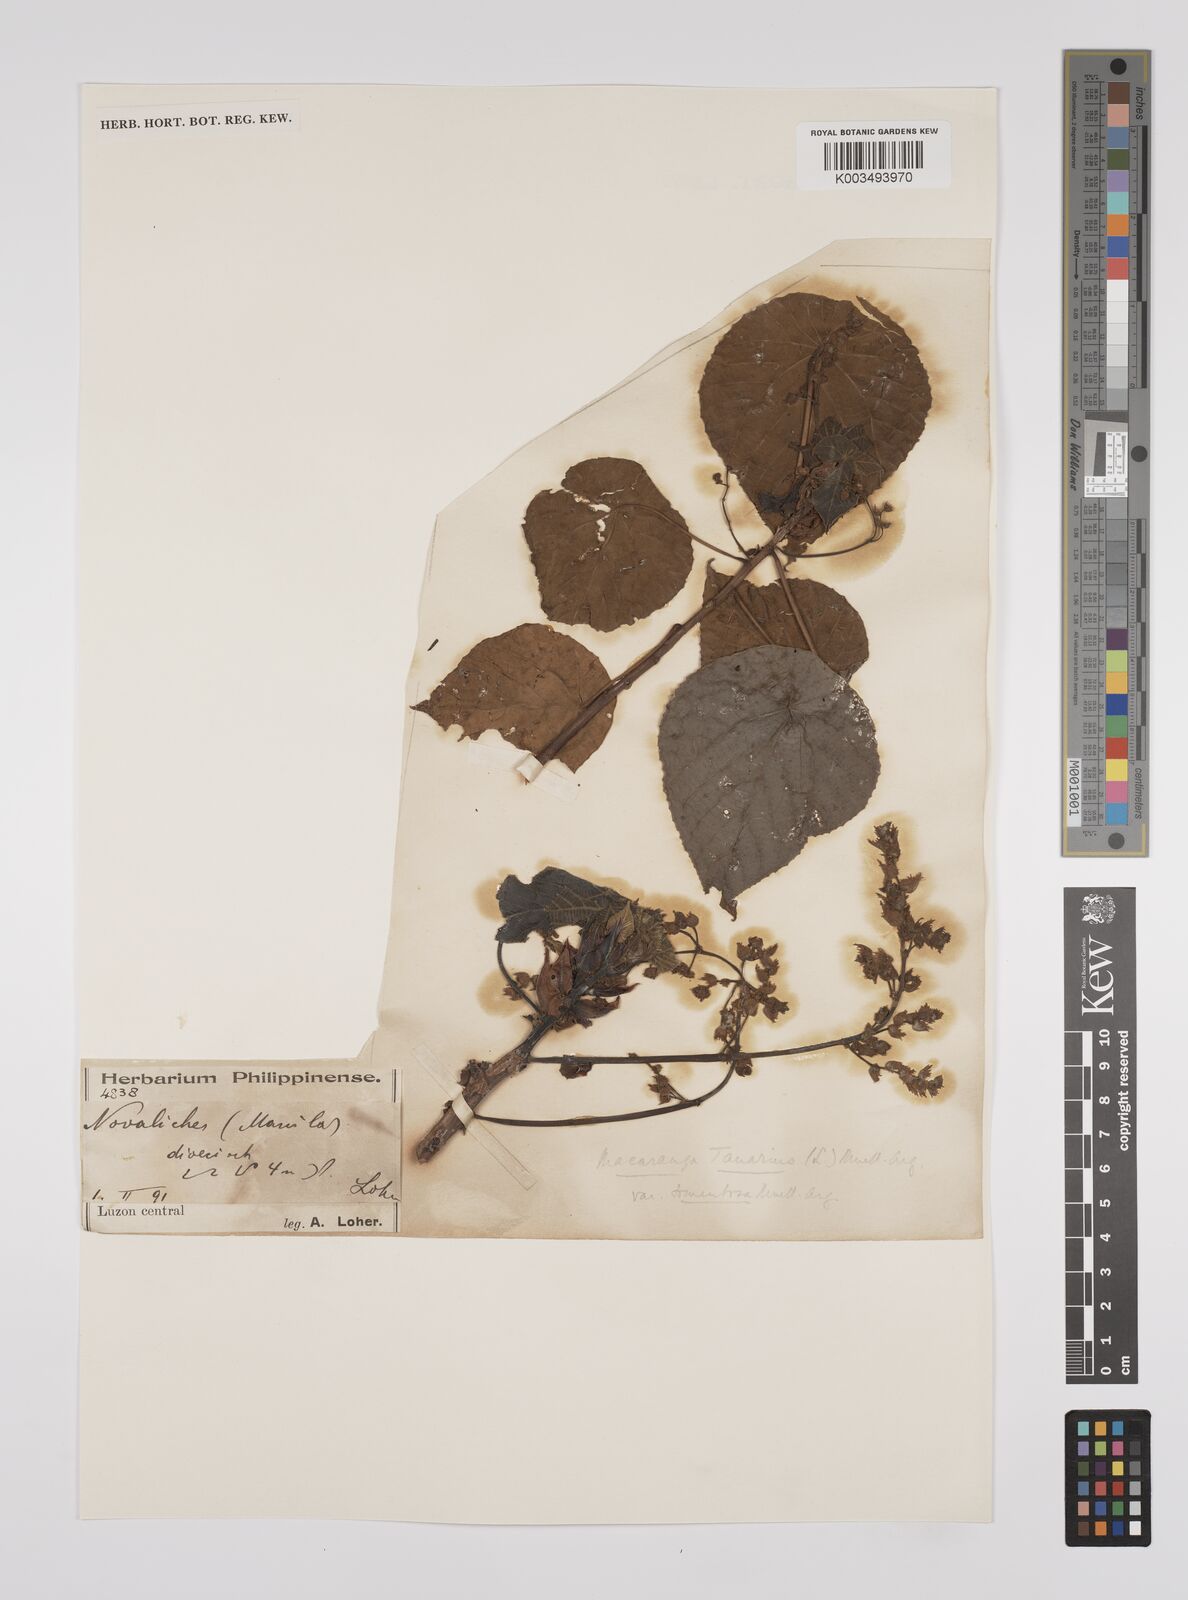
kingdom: Plantae
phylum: Tracheophyta
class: Magnoliopsida
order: Malpighiales
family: Euphorbiaceae
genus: Macaranga
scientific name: Macaranga tanarius
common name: Parasol leaf tree
